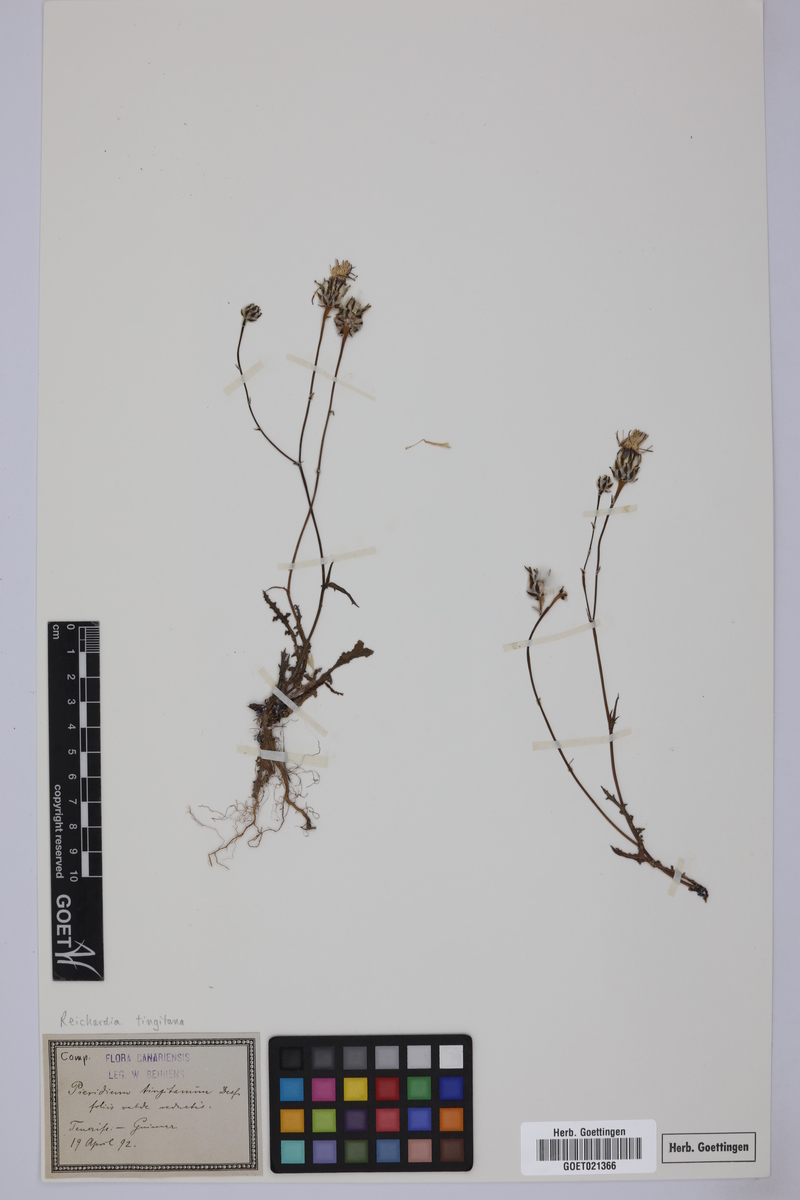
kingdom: Plantae
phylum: Tracheophyta
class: Magnoliopsida
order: Asterales
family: Asteraceae
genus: Reichardia
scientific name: Reichardia tingitana
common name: Reichardia
